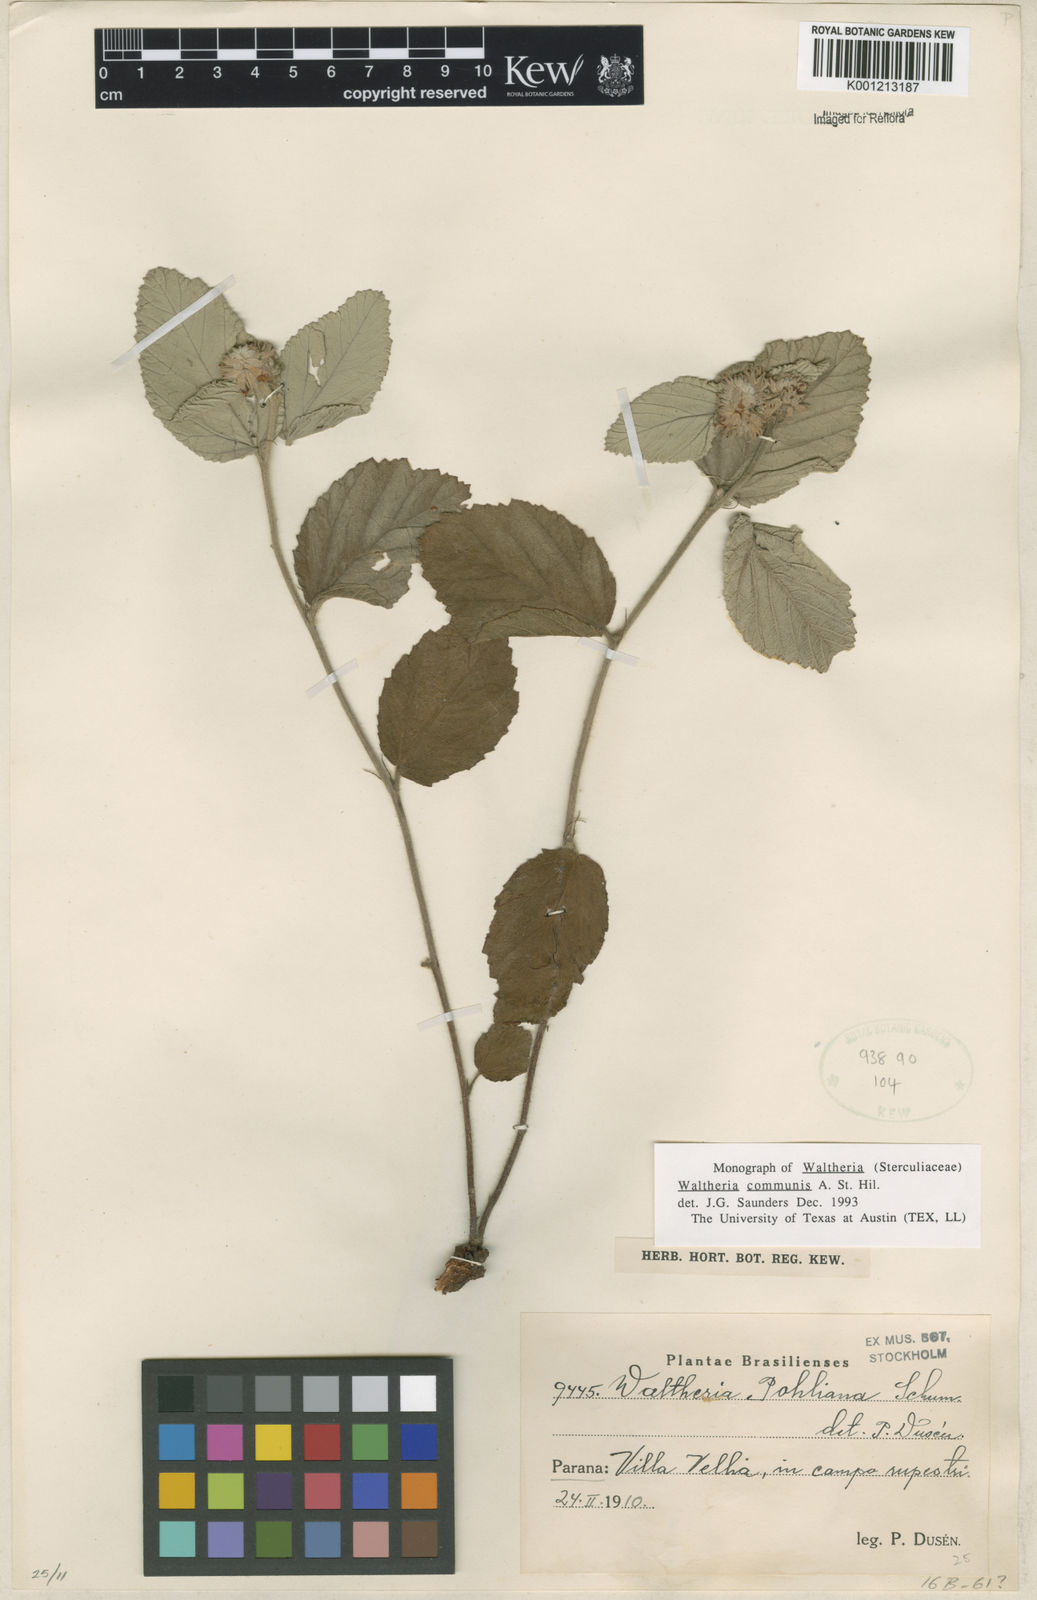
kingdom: Plantae
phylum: Tracheophyta
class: Magnoliopsida
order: Malvales
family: Malvaceae
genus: Waltheria
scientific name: Waltheria communis
